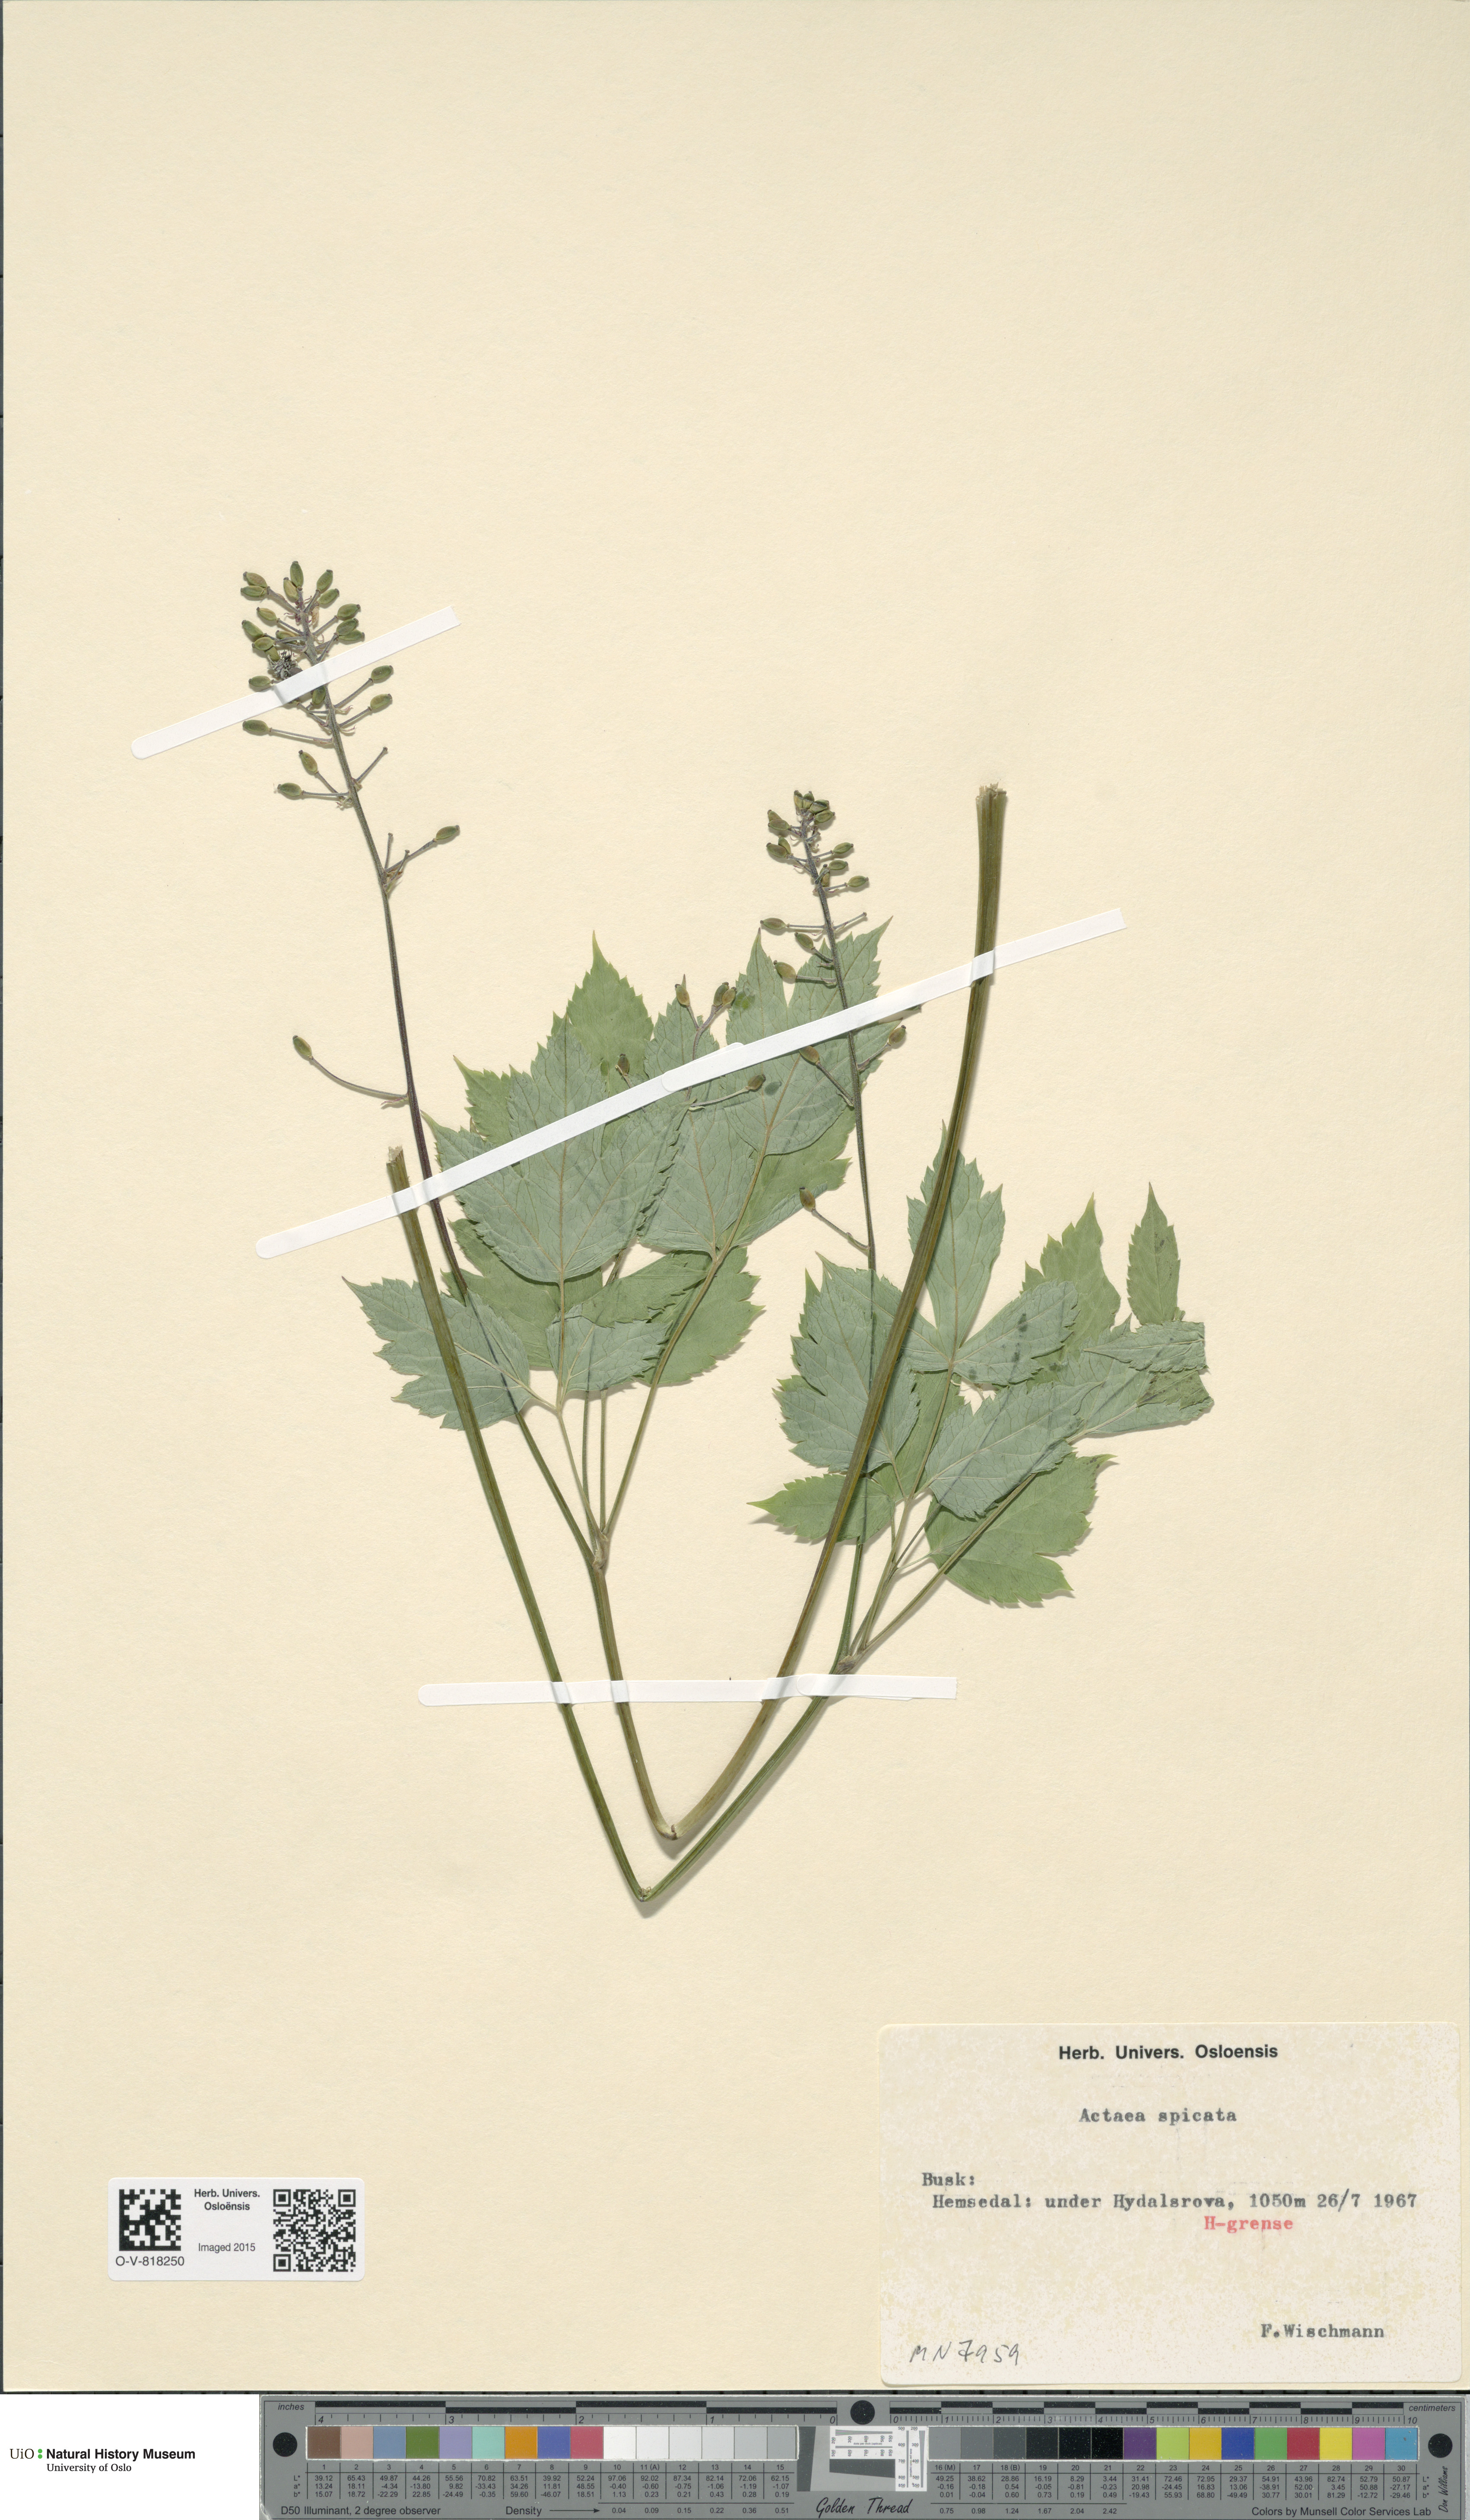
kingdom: Plantae
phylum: Tracheophyta
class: Magnoliopsida
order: Ranunculales
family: Ranunculaceae
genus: Actaea
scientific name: Actaea spicata
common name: Baneberry
